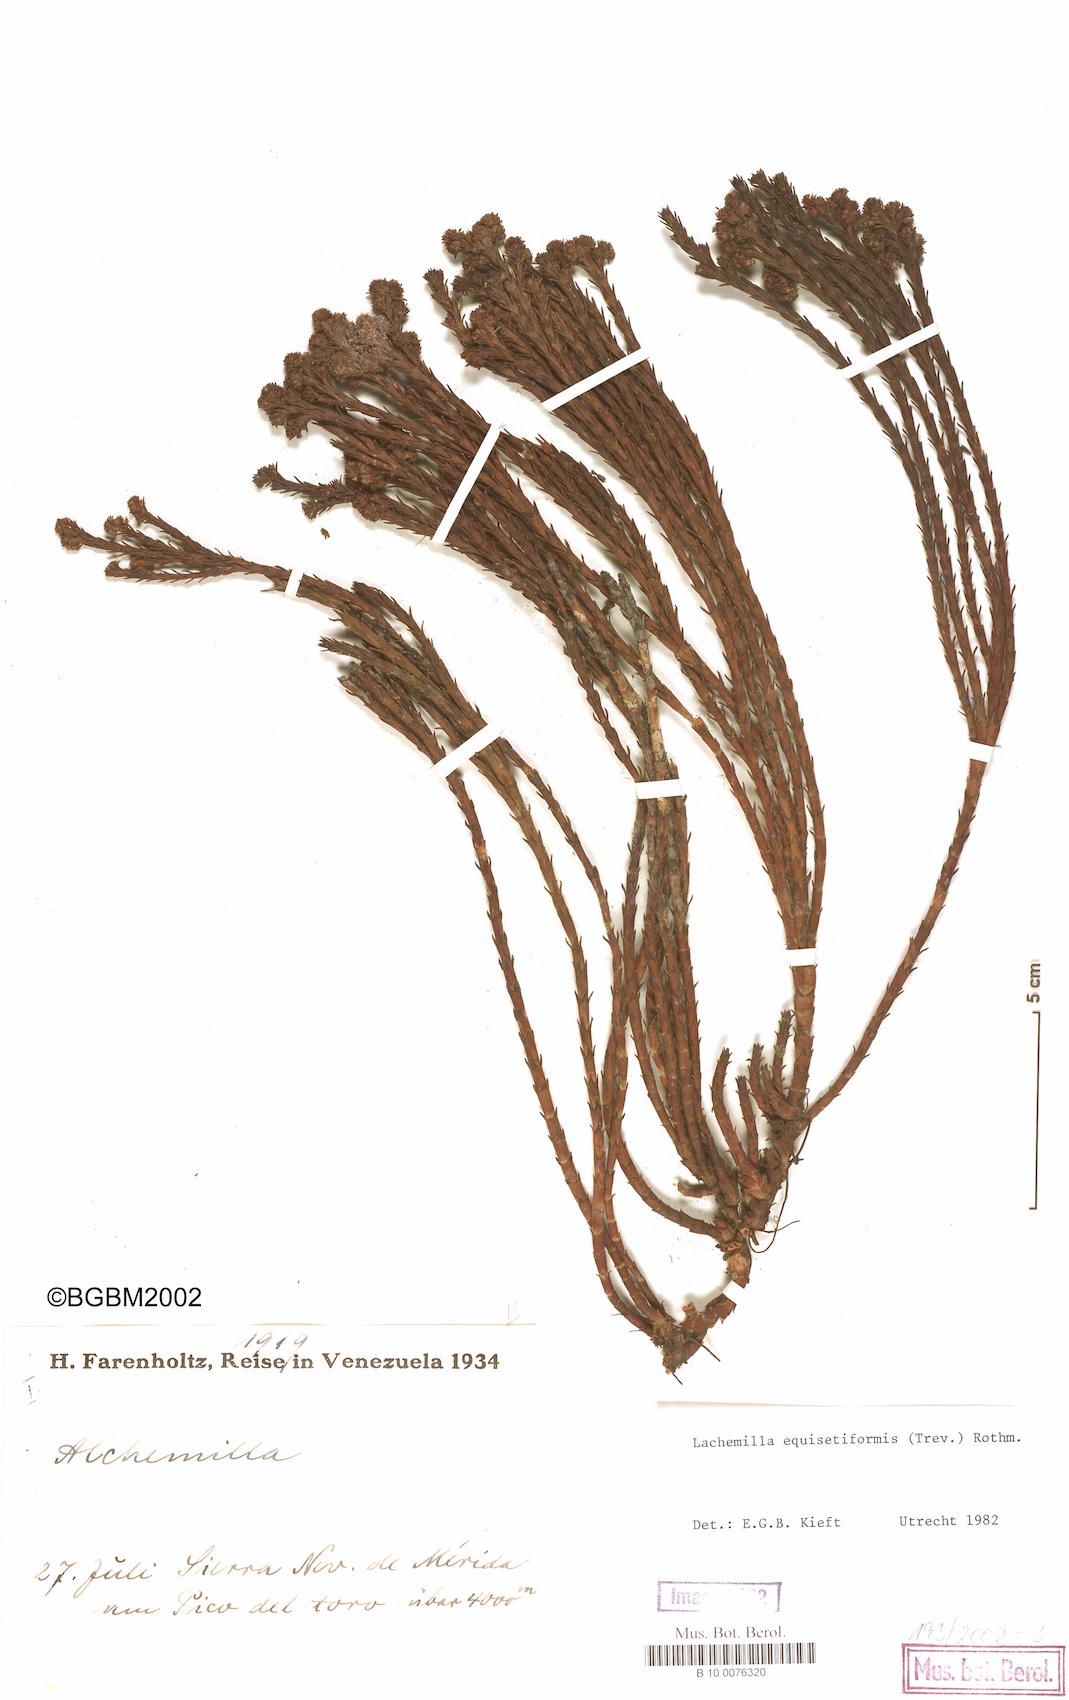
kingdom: Plantae
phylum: Tracheophyta
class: Magnoliopsida
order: Rosales
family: Rosaceae
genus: Lachemilla
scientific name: Lachemilla equisetiformis
